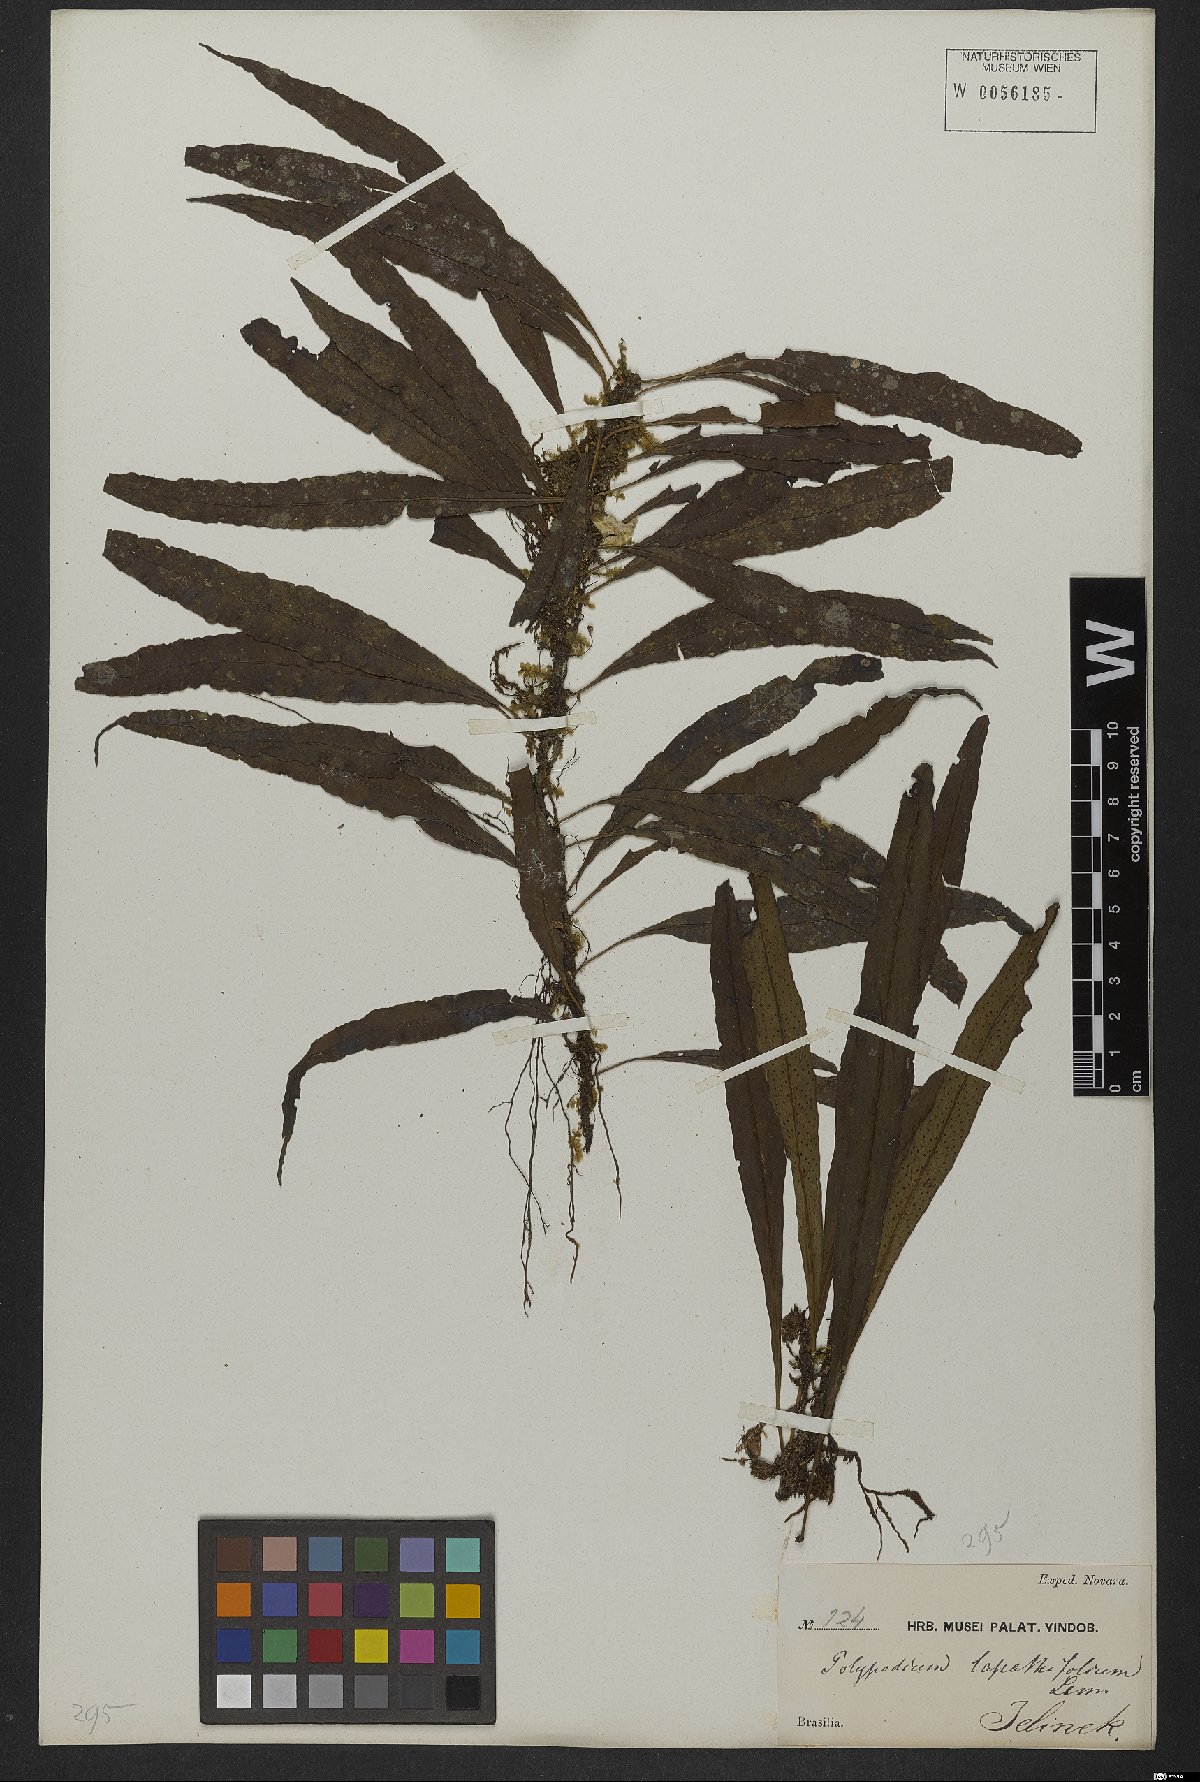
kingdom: Plantae
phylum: Tracheophyta
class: Polypodiopsida
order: Polypodiales
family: Polypodiaceae
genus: Serpocaulon
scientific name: Serpocaulon levigatum
